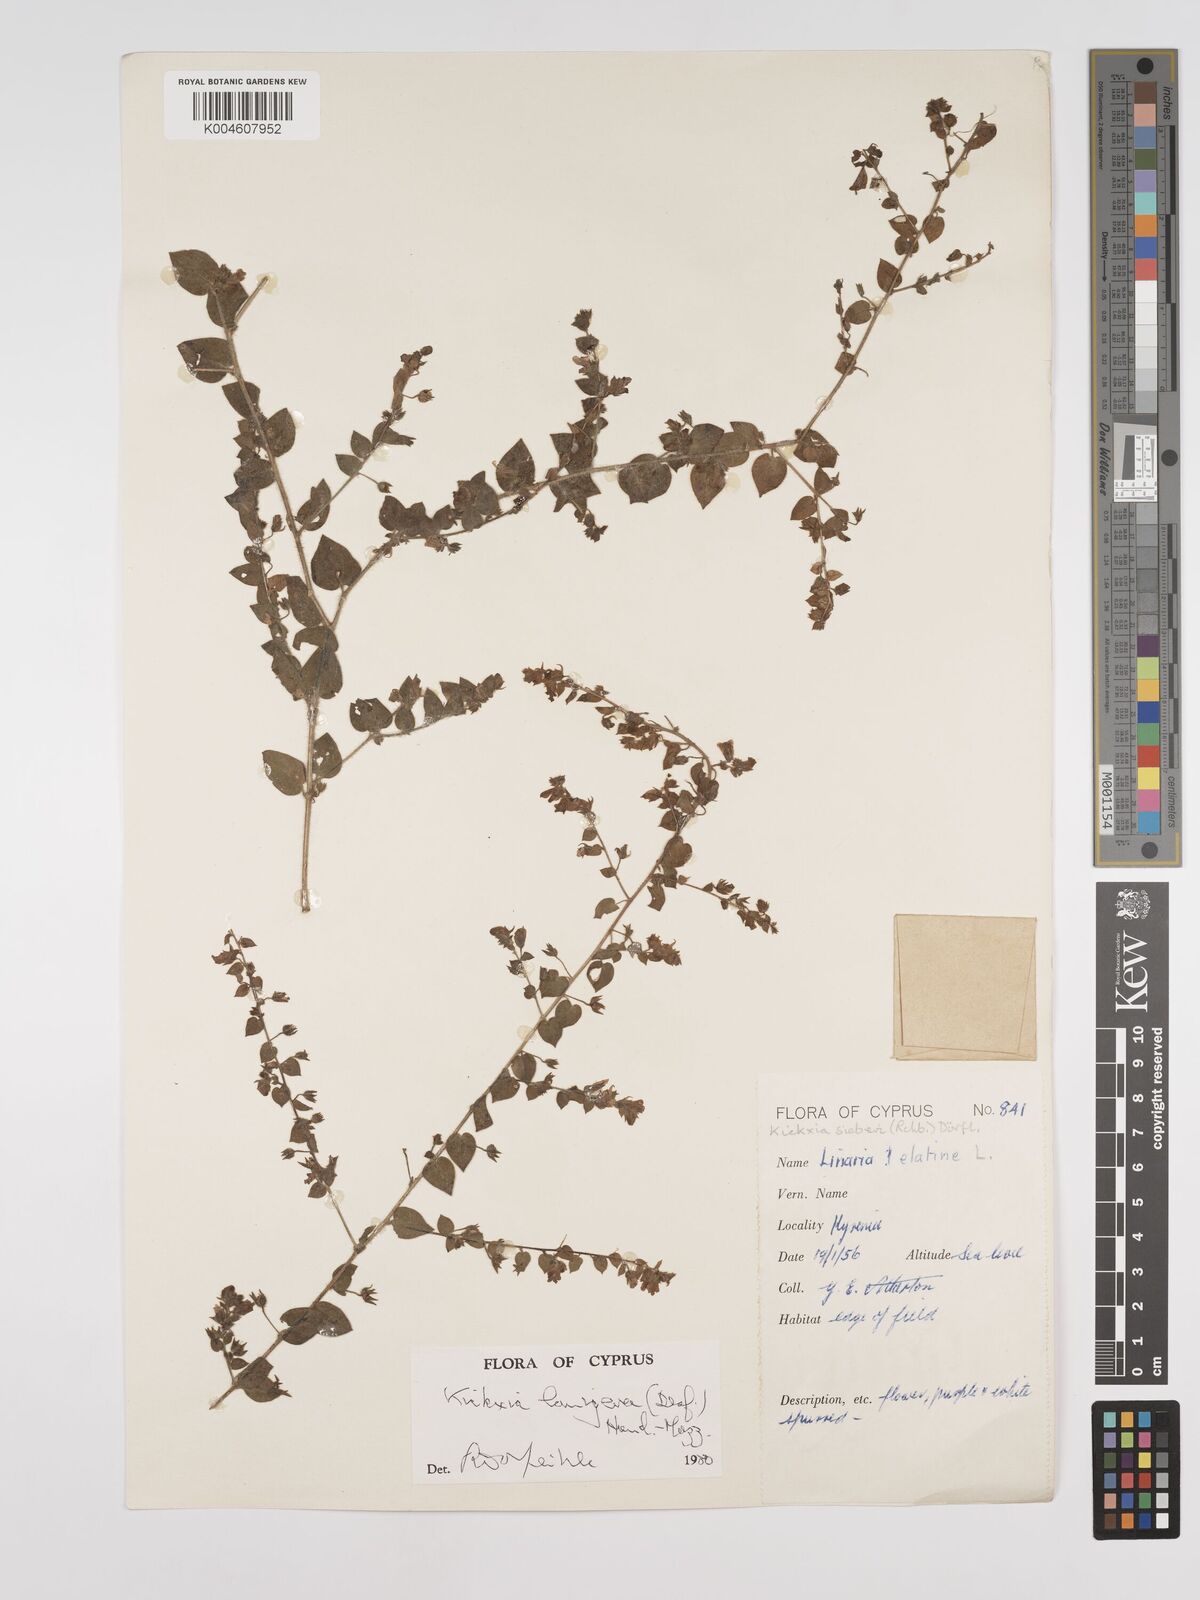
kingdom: Plantae
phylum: Tracheophyta
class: Magnoliopsida
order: Lamiales
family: Plantaginaceae
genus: Kickxia
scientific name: Kickxia lanigera
